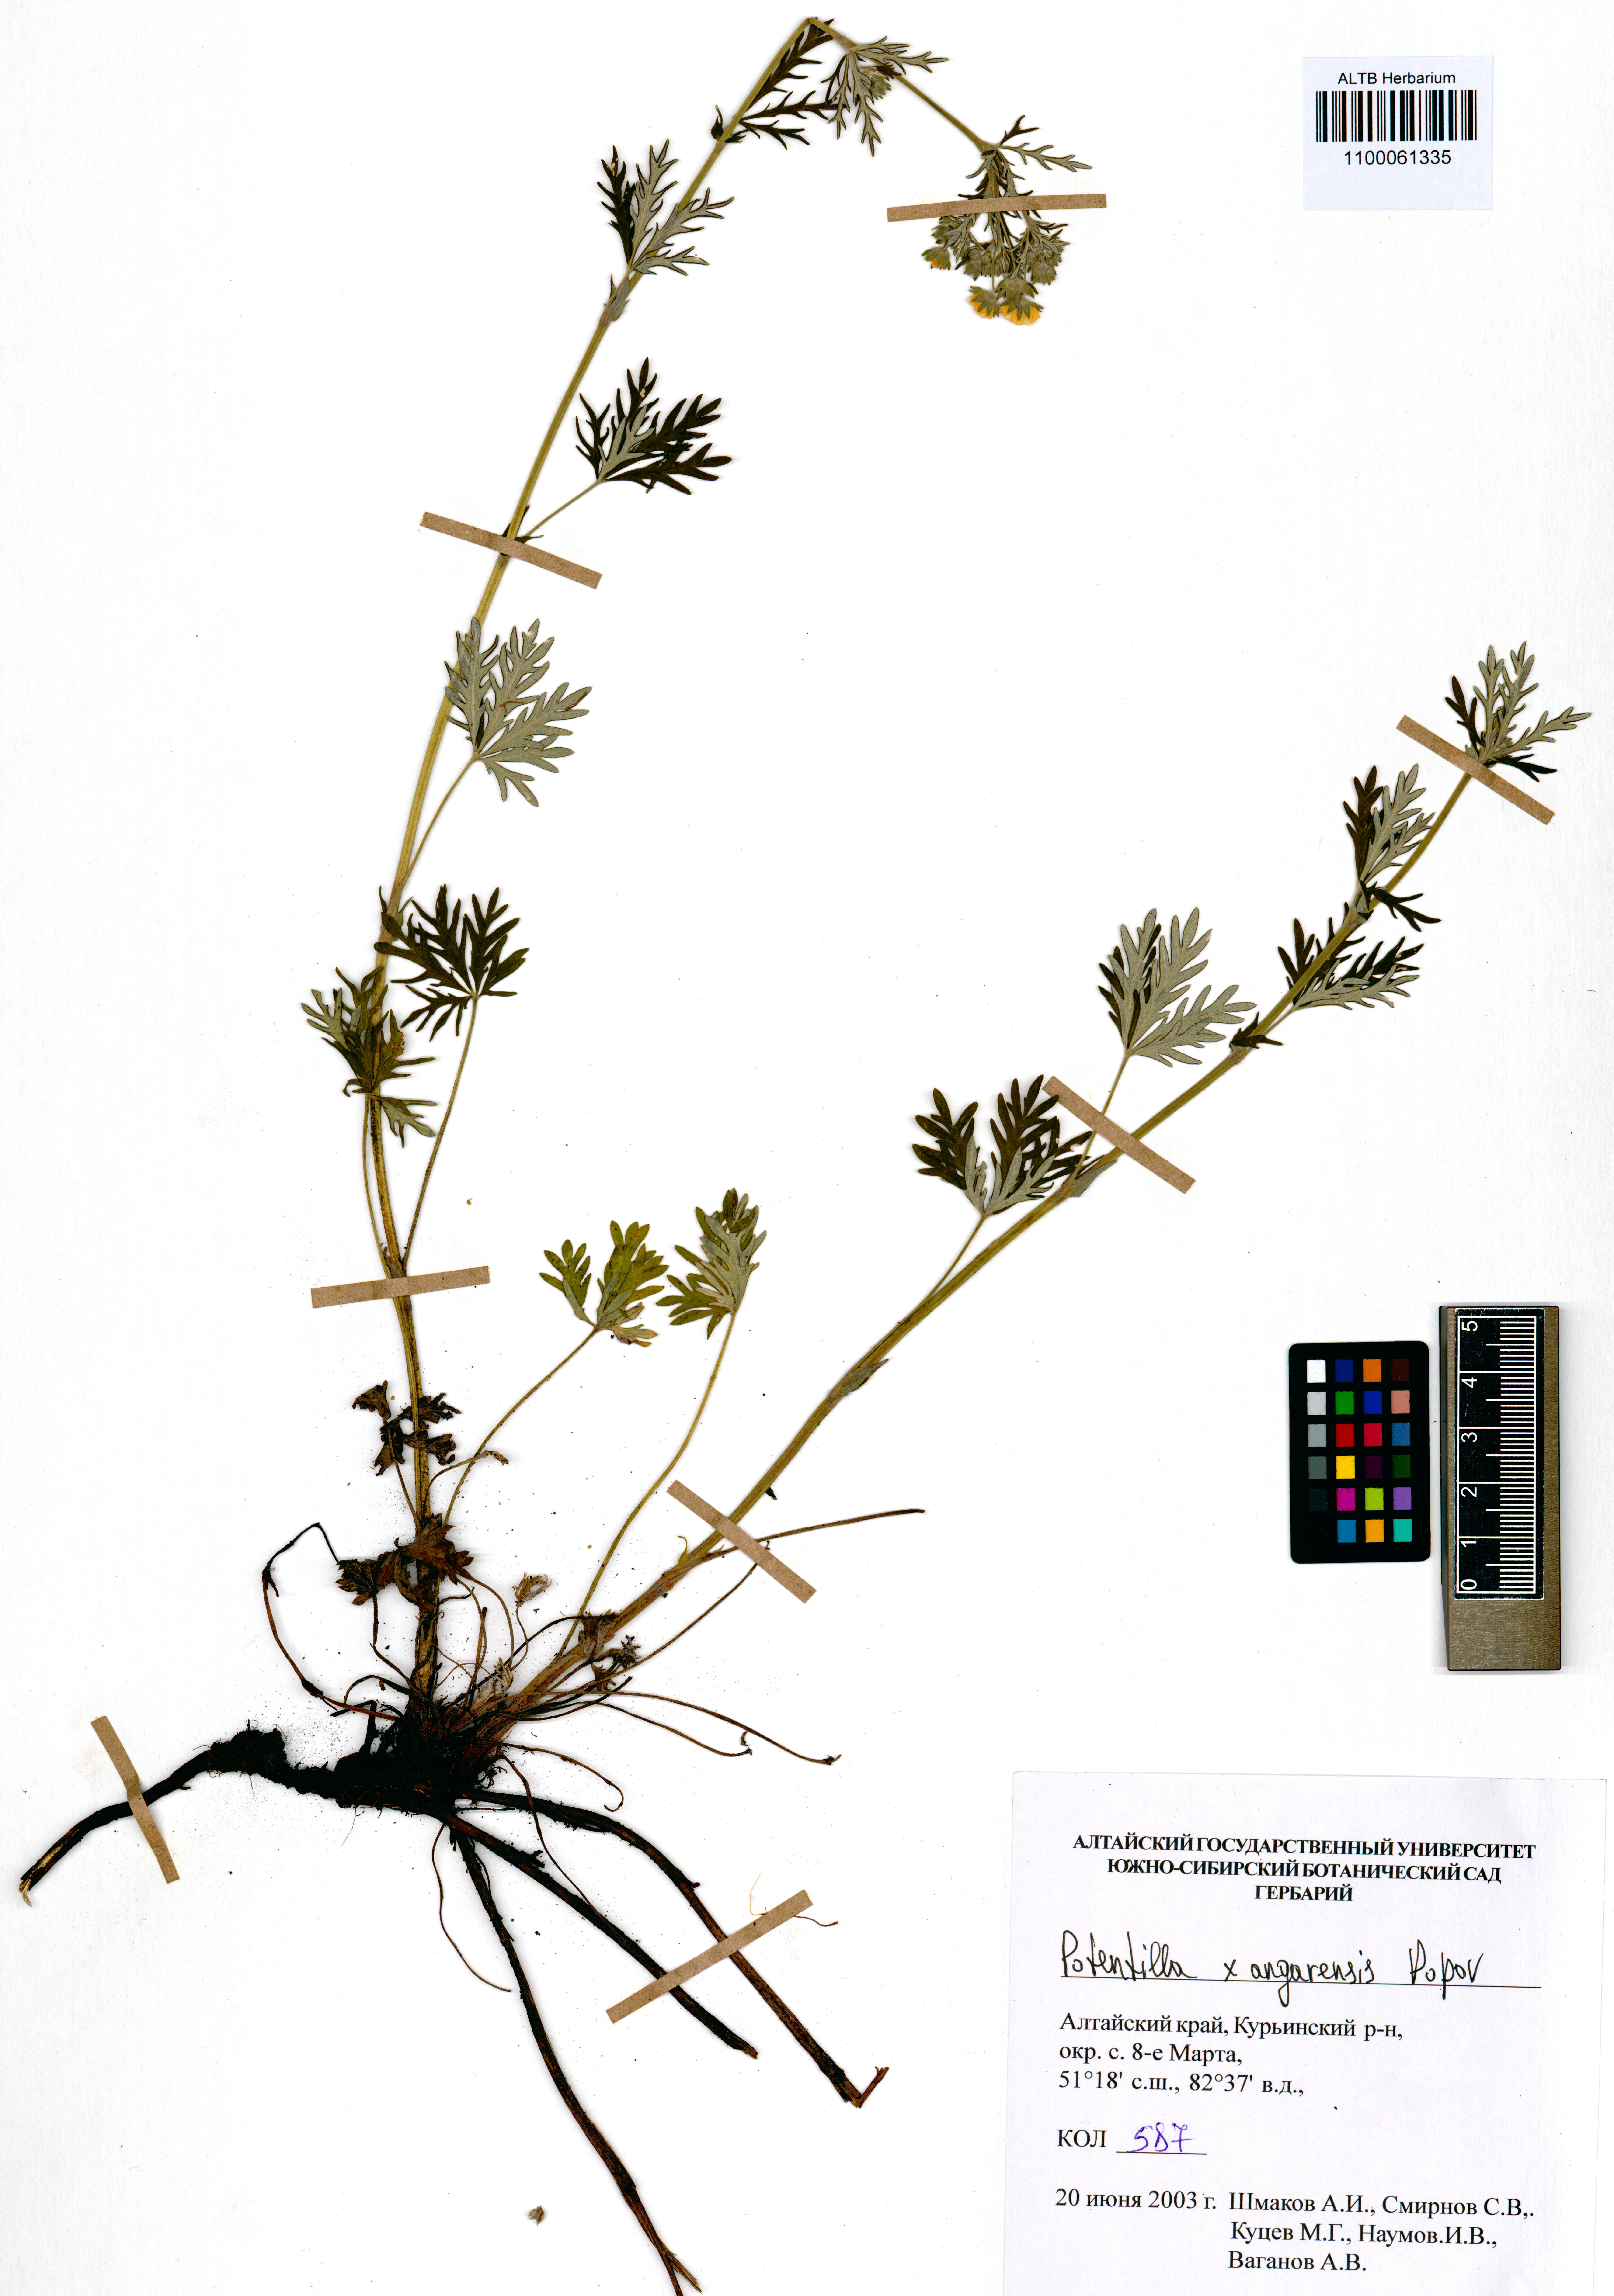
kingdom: Plantae
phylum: Tracheophyta
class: Magnoliopsida
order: Rosales
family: Rosaceae
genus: Potentilla
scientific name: Potentilla angarensis
